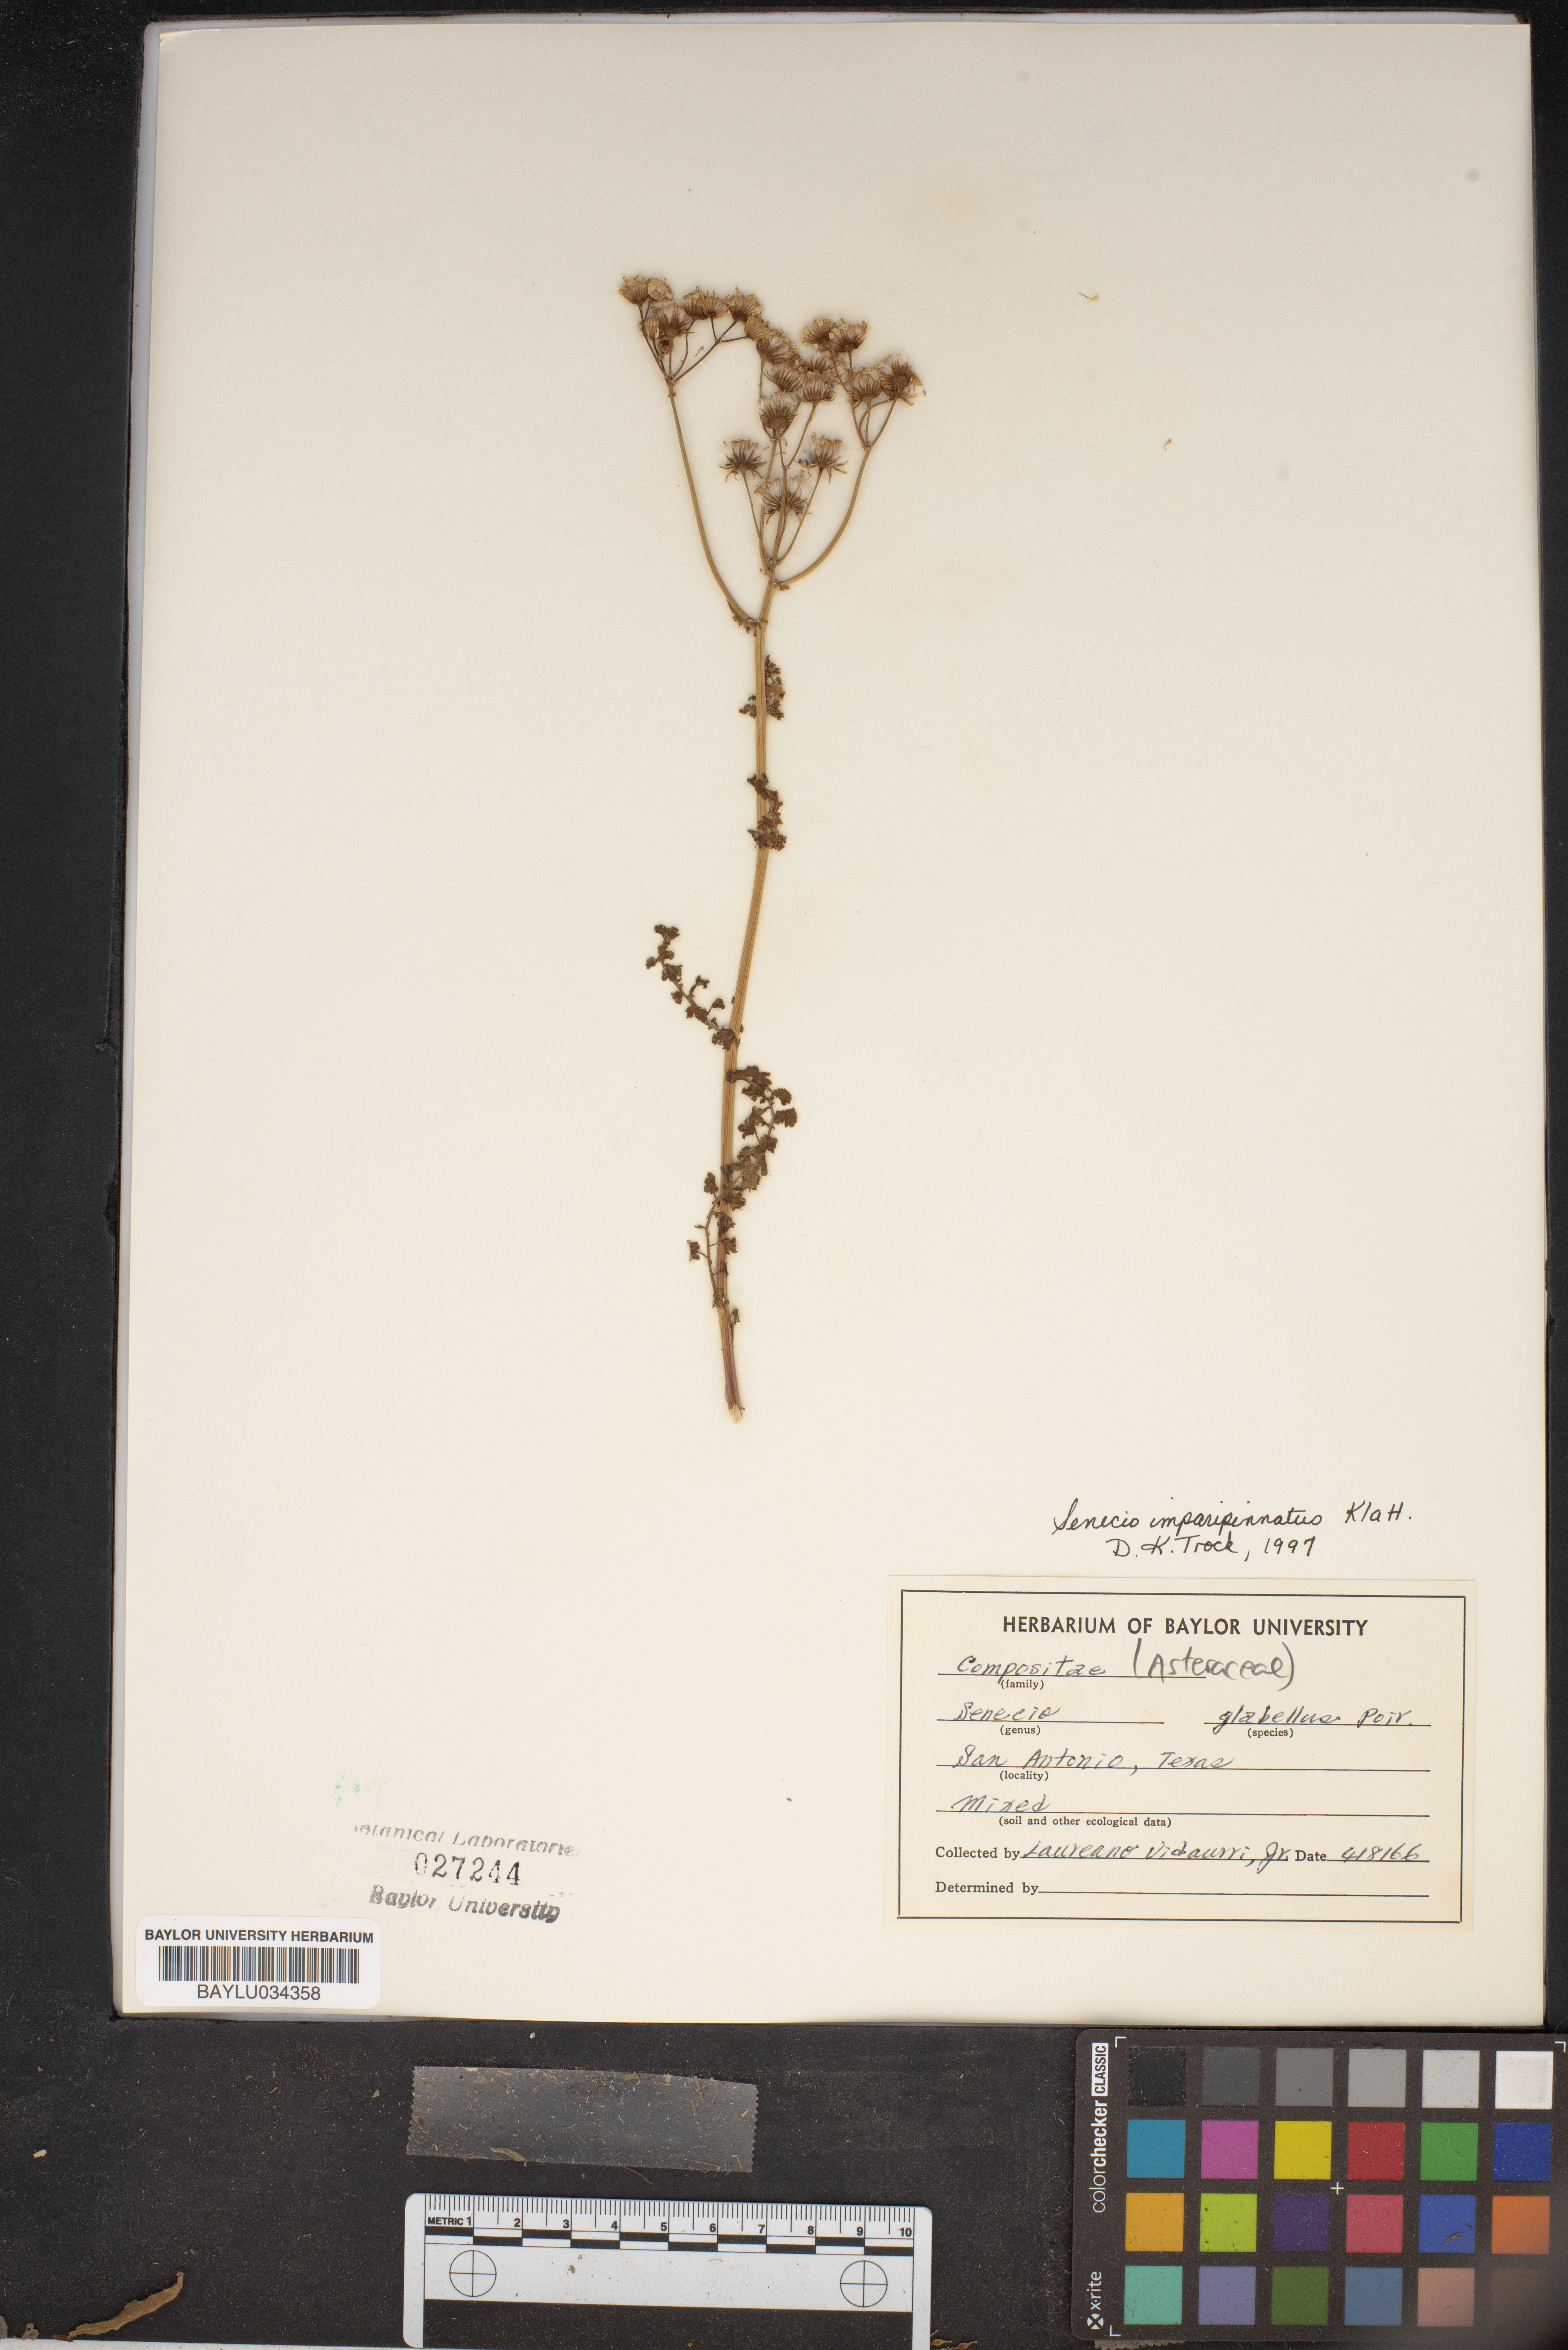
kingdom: Plantae
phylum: Tracheophyta
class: Magnoliopsida
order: Asterales
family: Asteraceae
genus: Packera
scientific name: Packera tampicana
